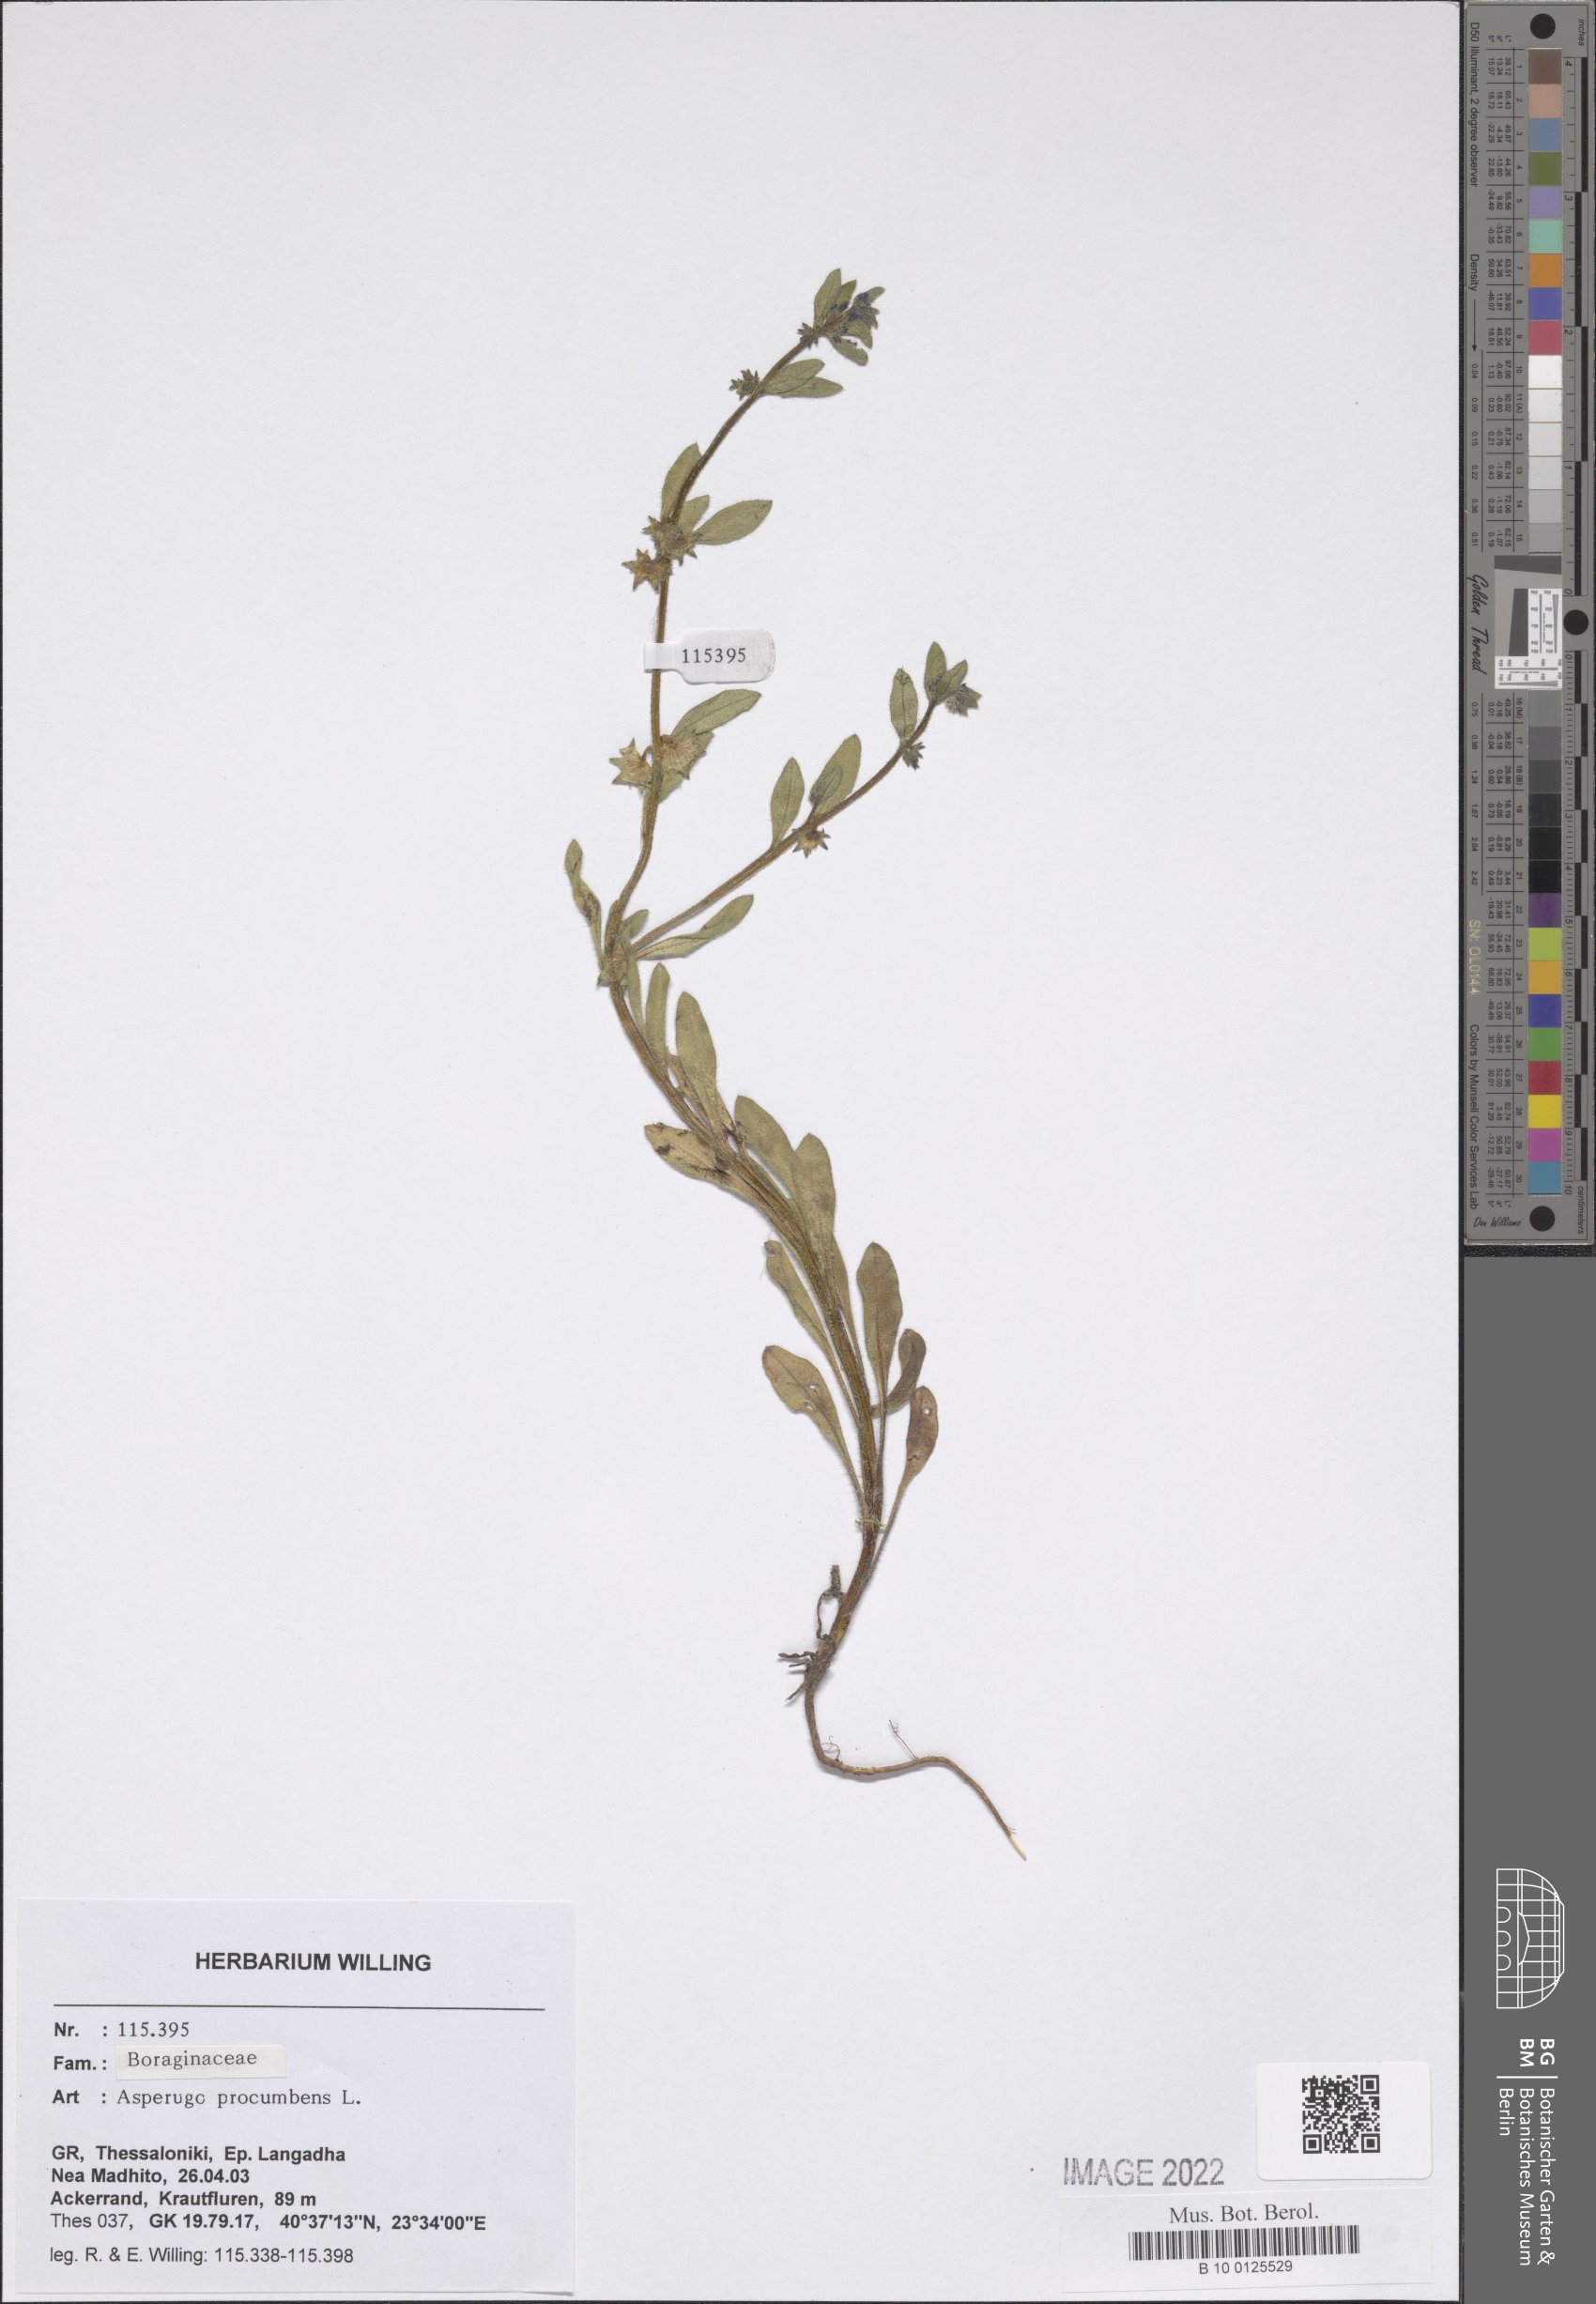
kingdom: Plantae
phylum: Tracheophyta
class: Magnoliopsida
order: Boraginales
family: Boraginaceae
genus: Asperugo
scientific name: Asperugo procumbens
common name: Madwort
